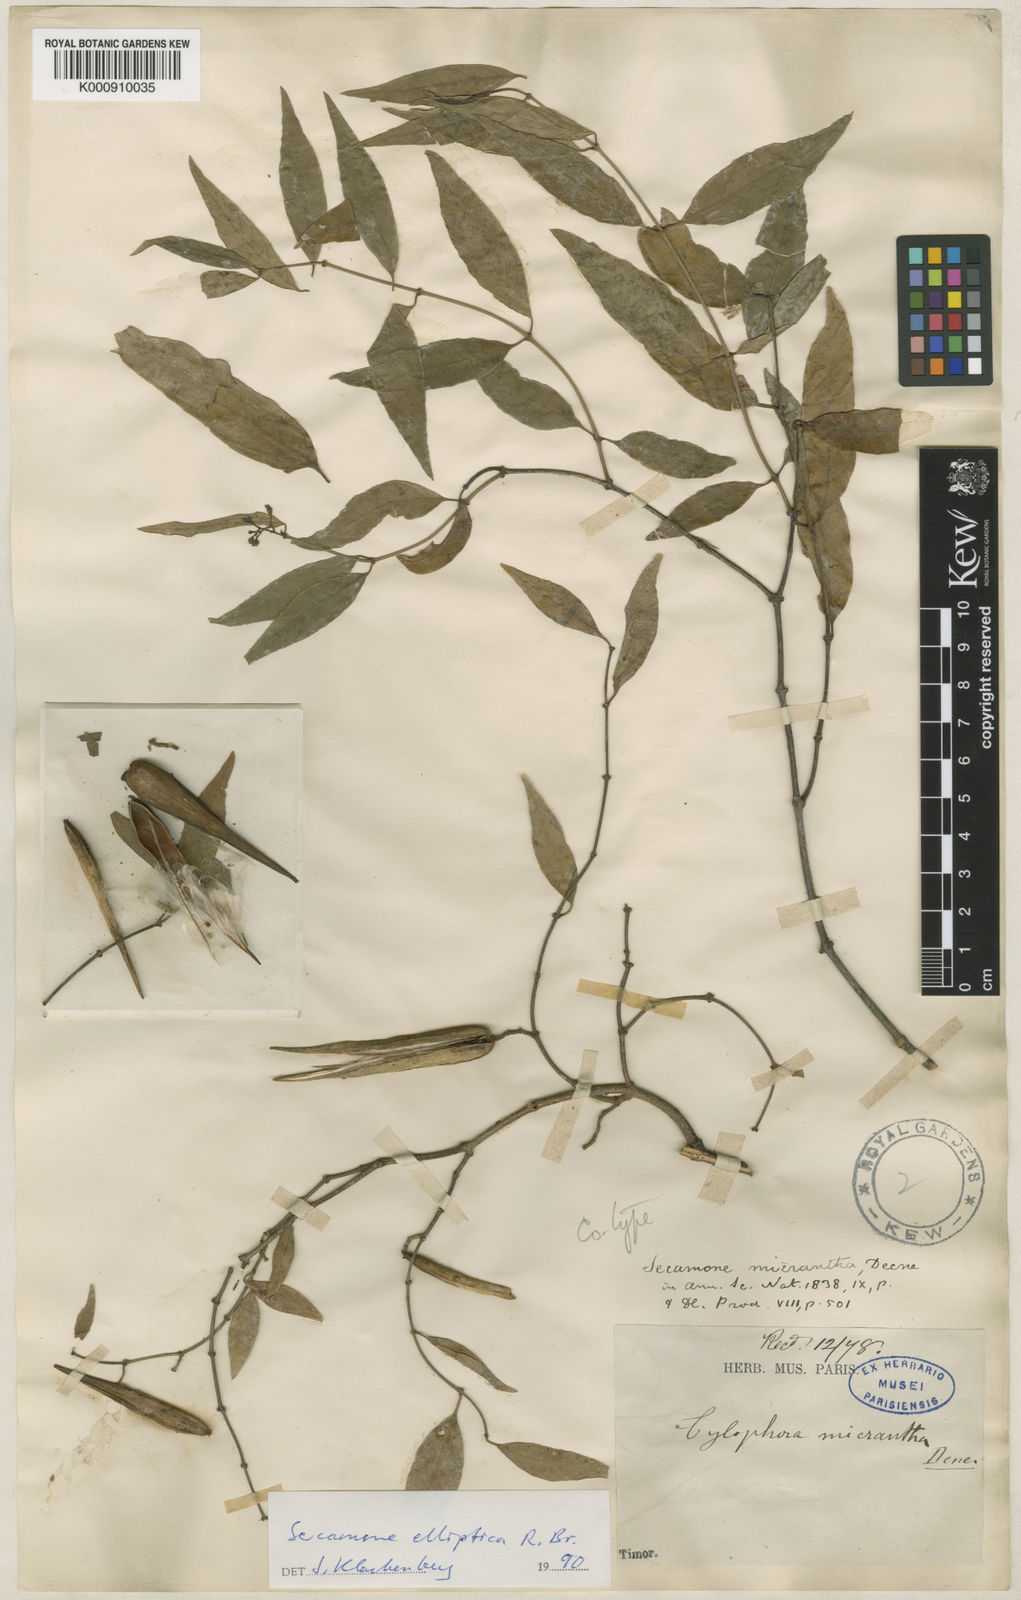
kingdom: Plantae
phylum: Tracheophyta
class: Magnoliopsida
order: Gentianales
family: Apocynaceae
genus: Secamone
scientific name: Secamone elliptica
